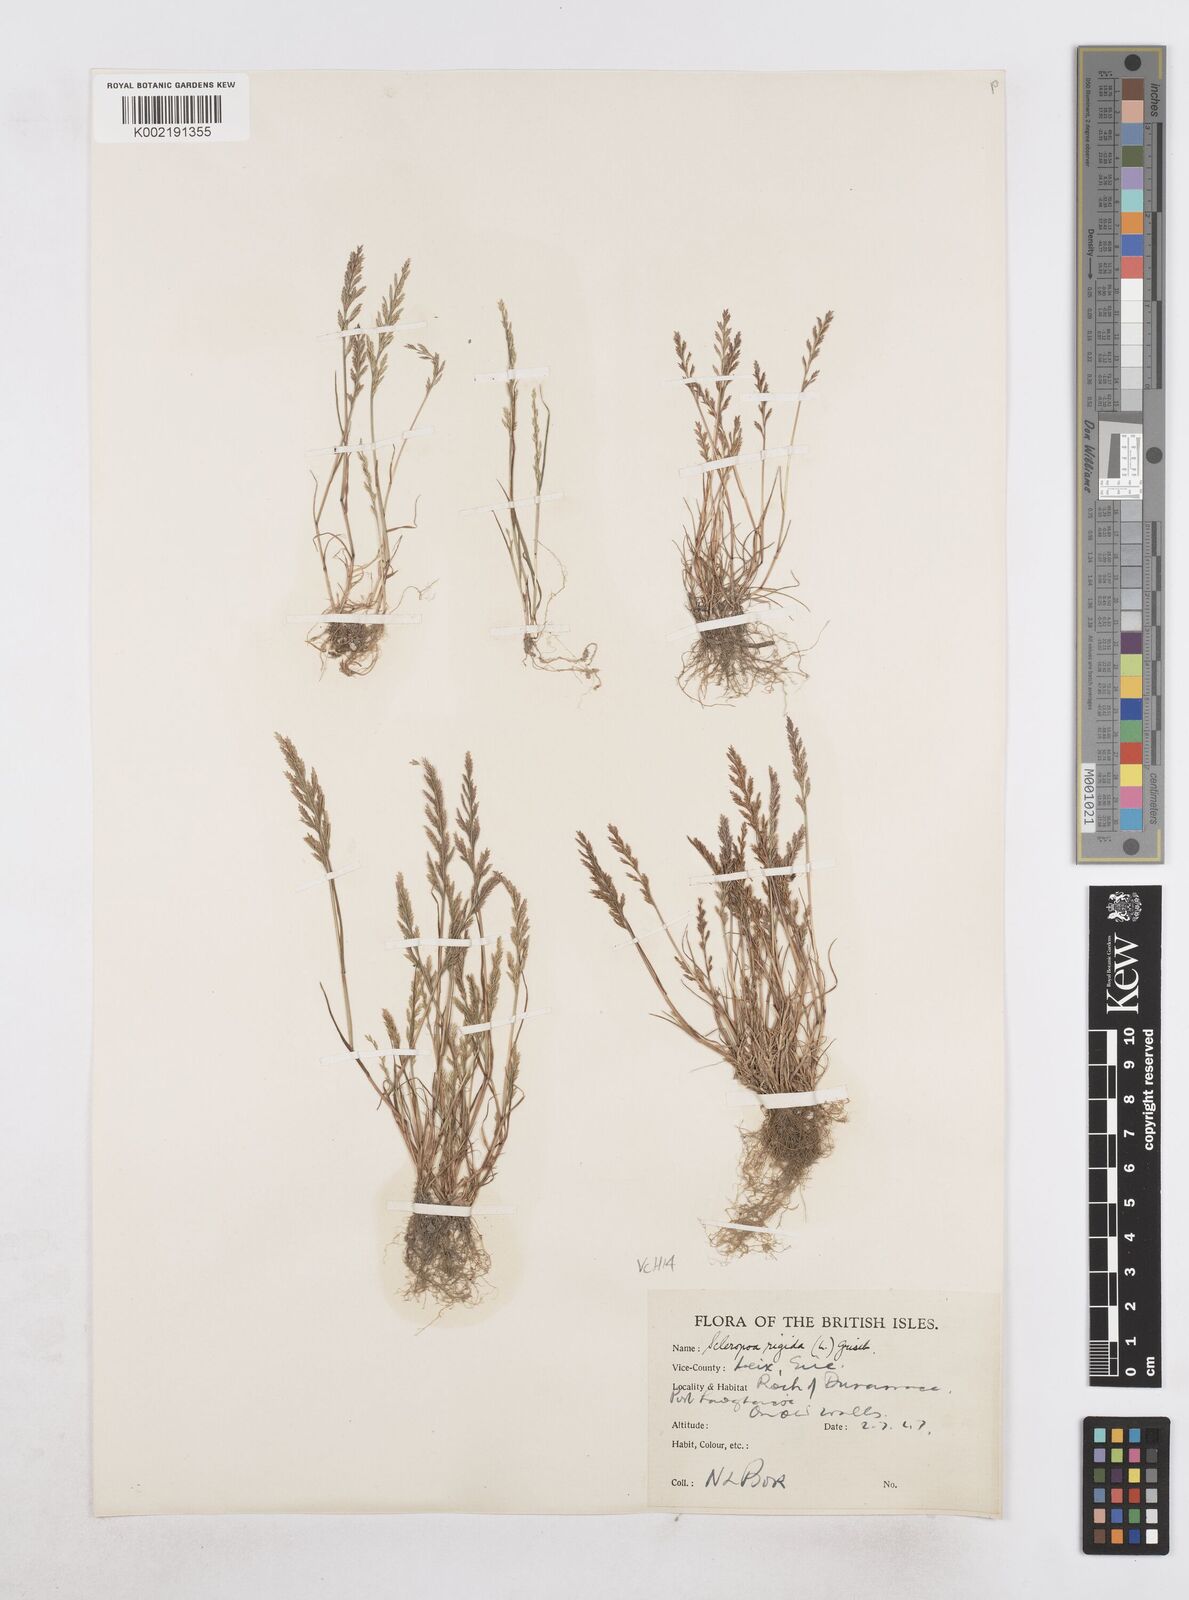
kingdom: Plantae
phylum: Tracheophyta
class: Liliopsida
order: Poales
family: Poaceae
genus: Catapodium
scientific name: Catapodium rigidum
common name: Fern-grass
